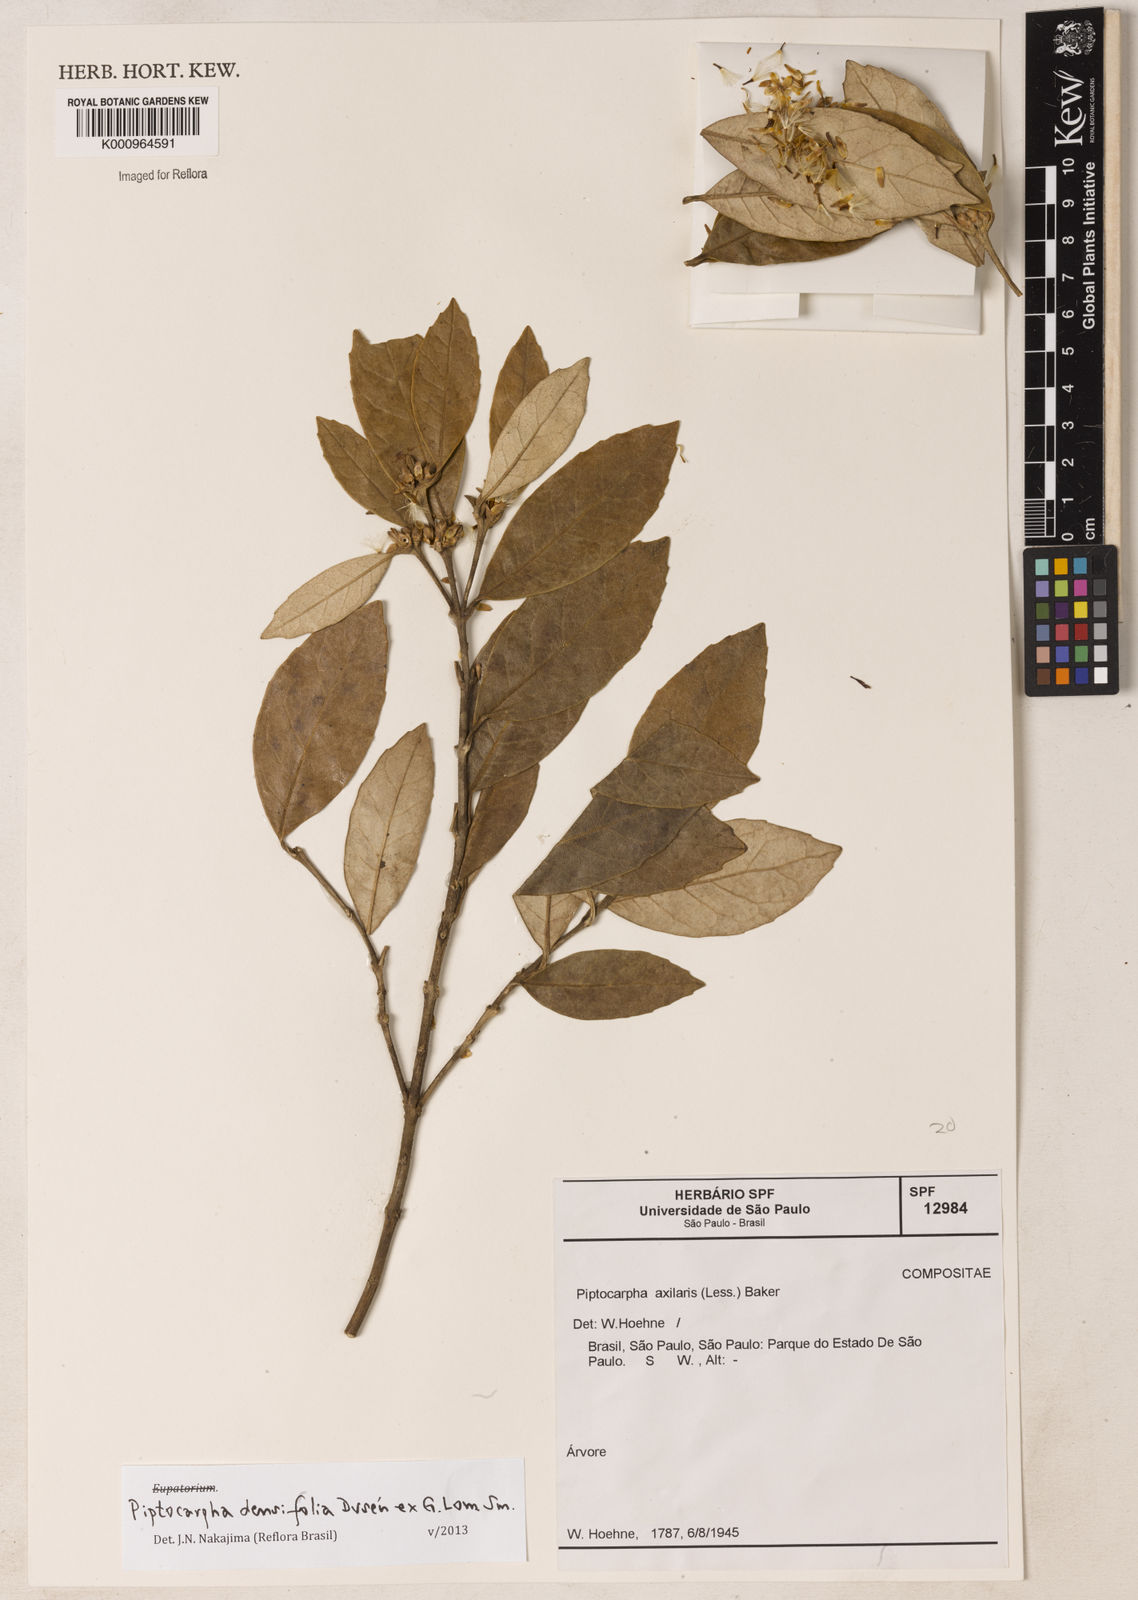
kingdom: Plantae
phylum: Tracheophyta
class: Magnoliopsida
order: Asterales
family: Asteraceae
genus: Piptocarpha
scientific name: Piptocarpha
